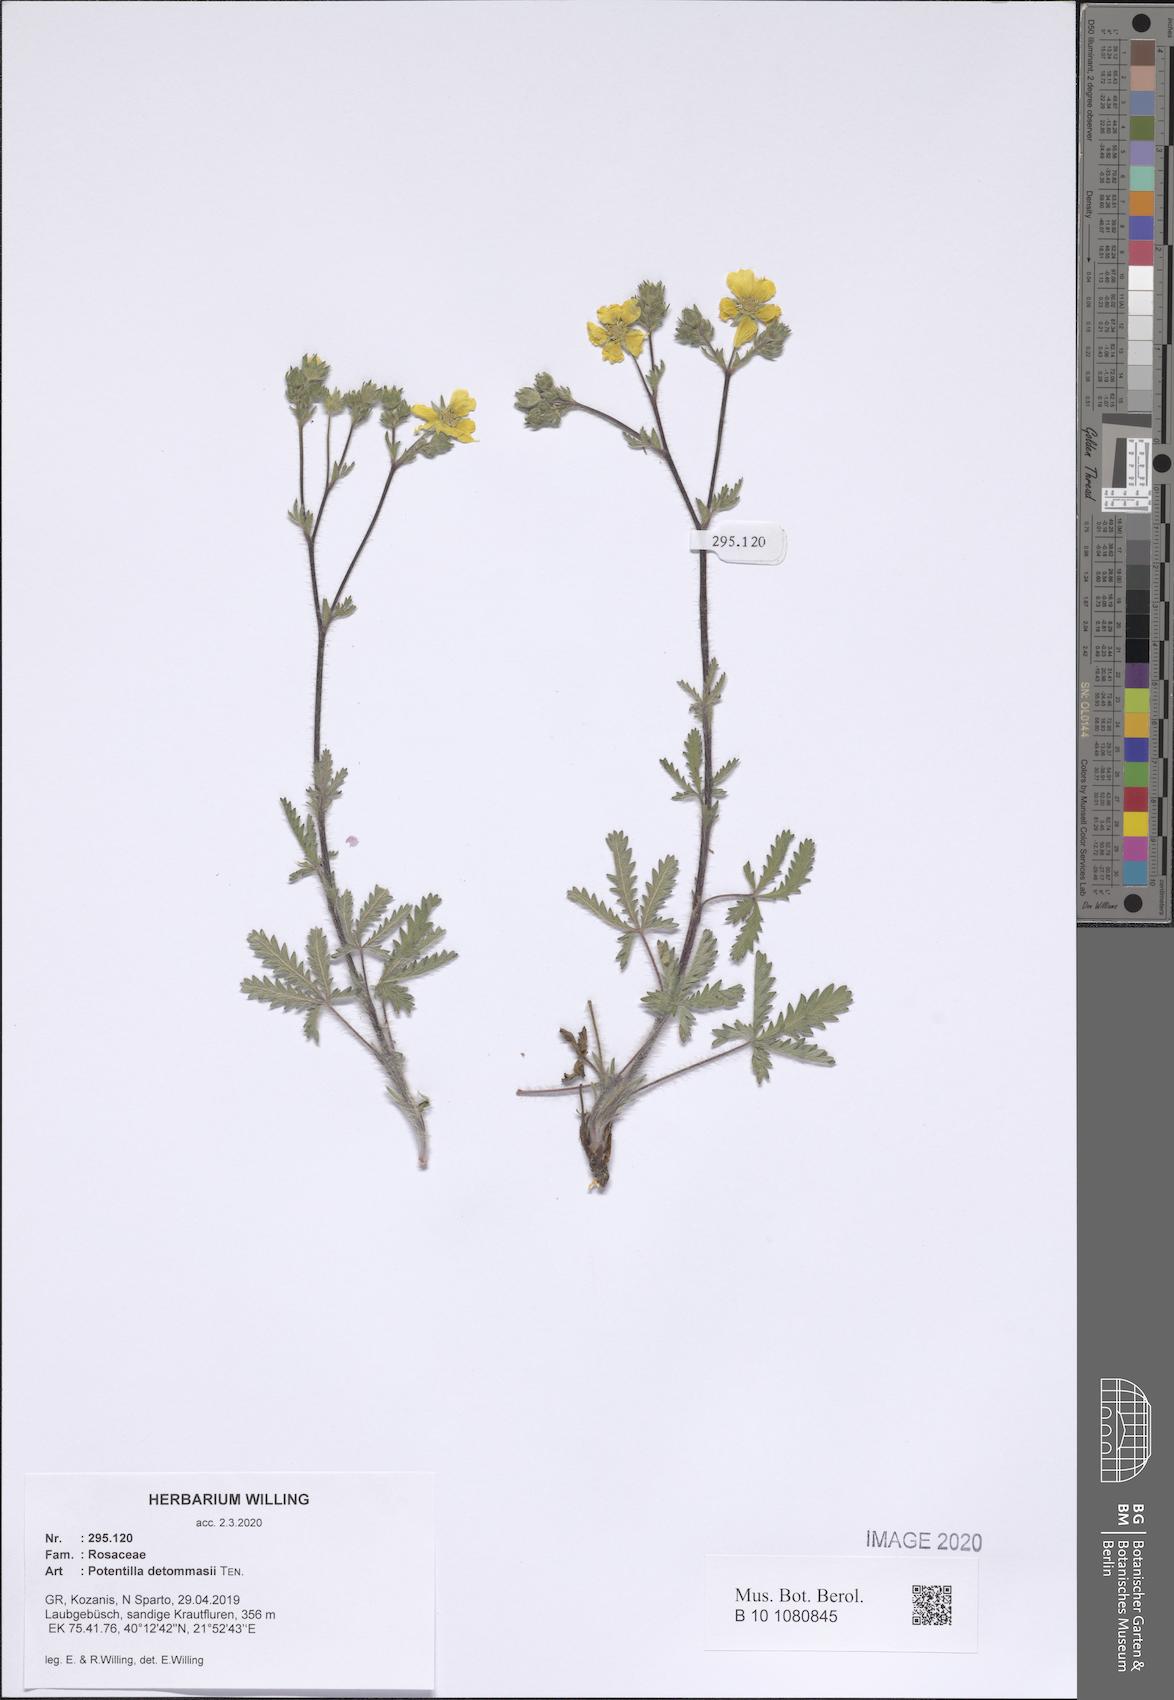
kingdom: Plantae
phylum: Tracheophyta
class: Magnoliopsida
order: Rosales
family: Rosaceae
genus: Potentilla
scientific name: Potentilla detommasii
